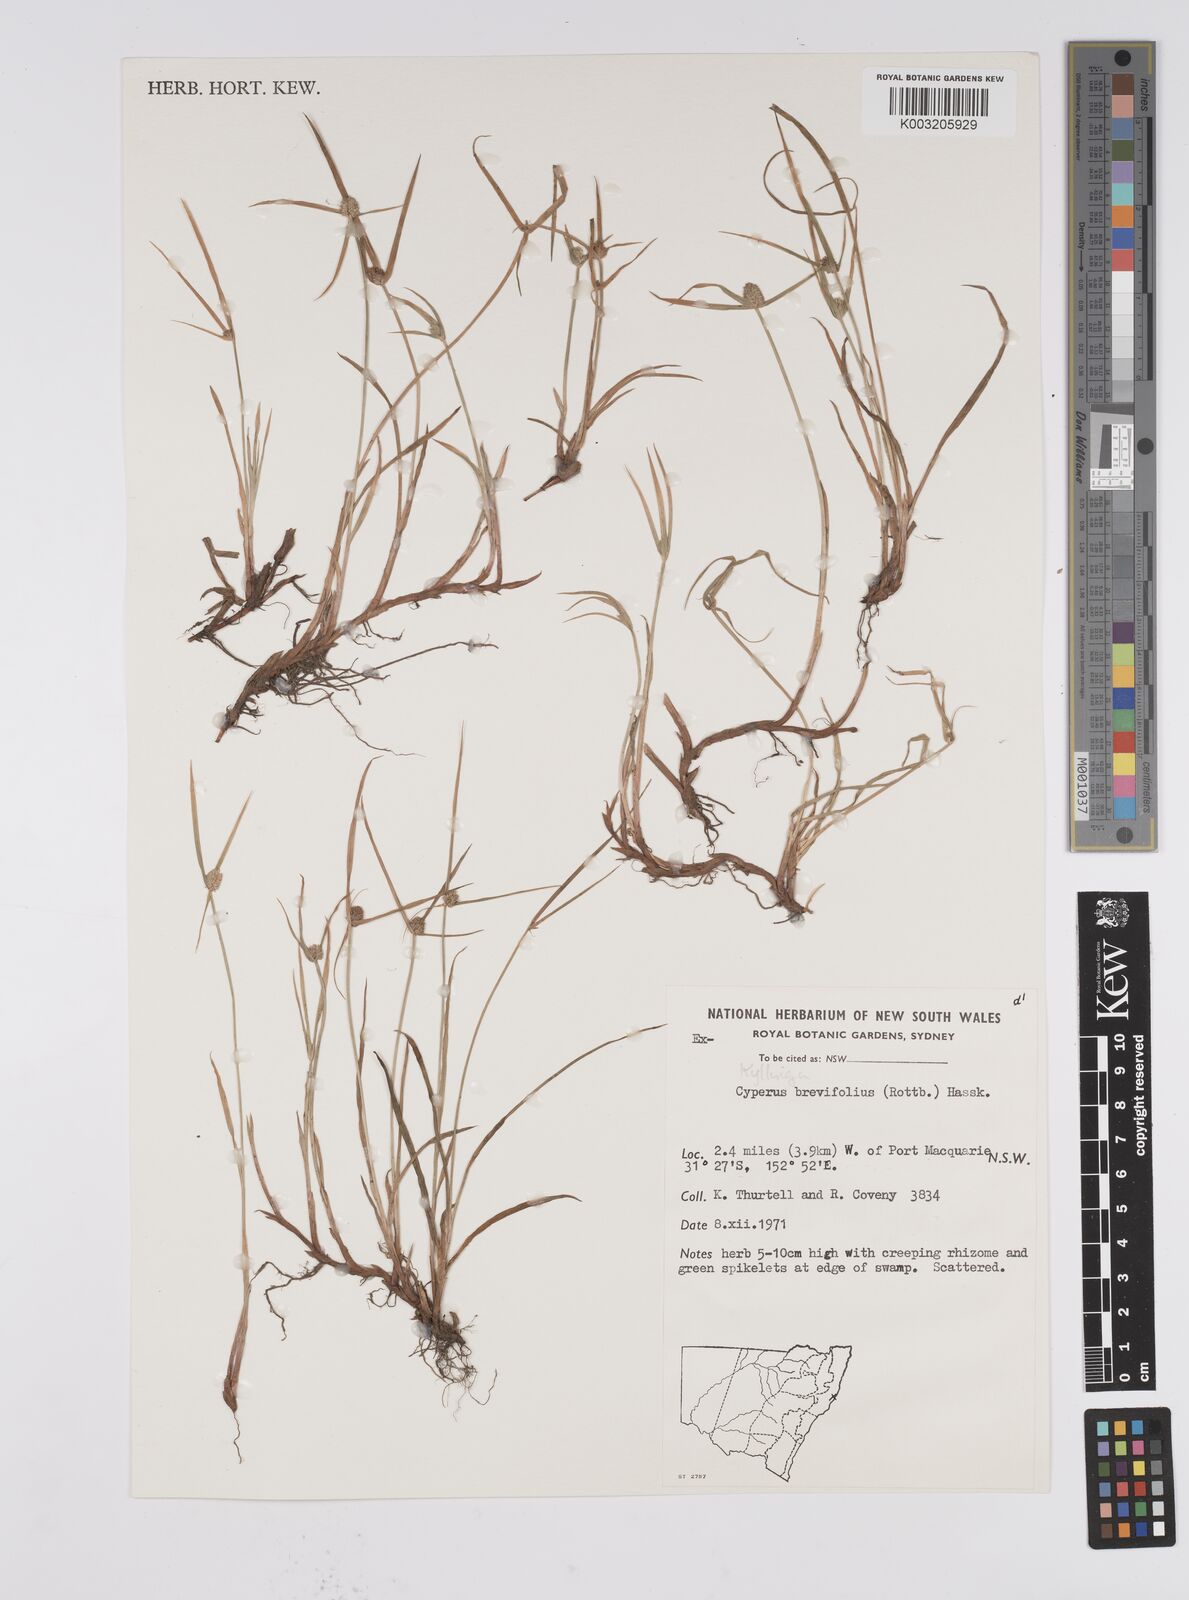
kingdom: Plantae
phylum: Tracheophyta
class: Liliopsida
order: Poales
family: Cyperaceae
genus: Cyperus
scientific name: Cyperus brevifolius
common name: Globe kyllinga
